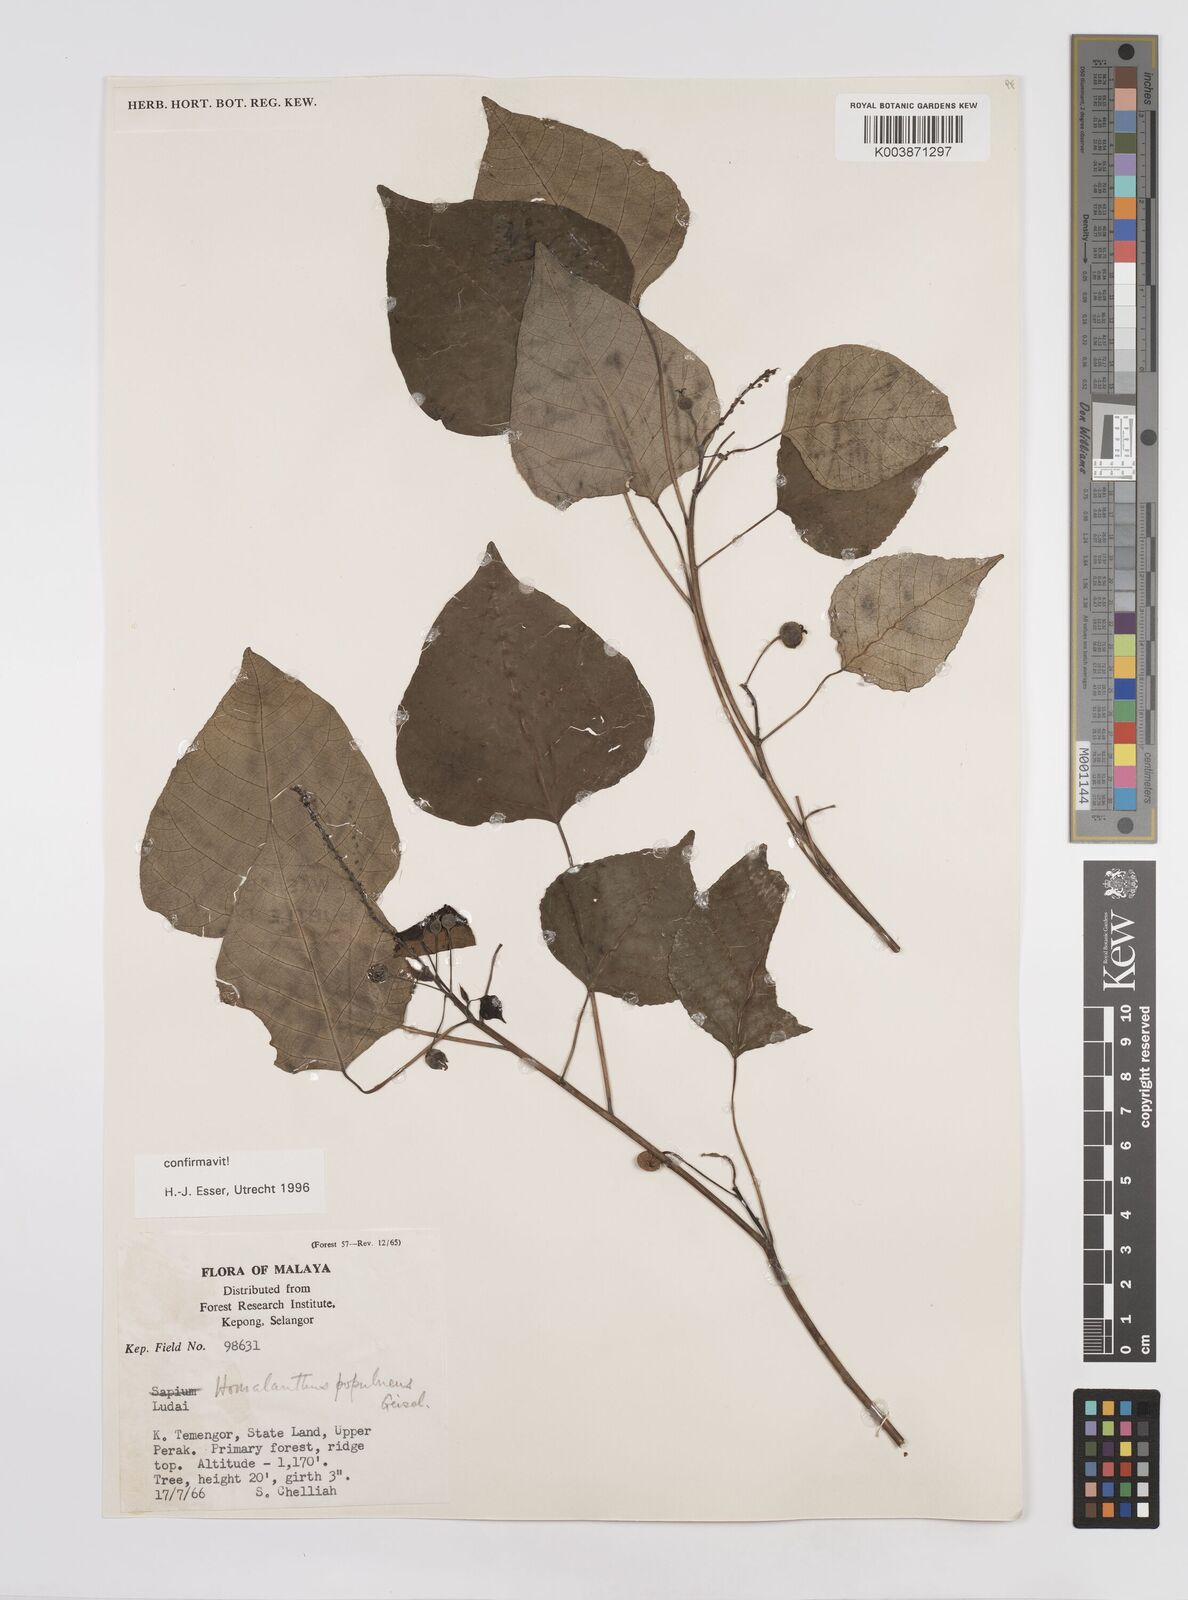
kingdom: Plantae
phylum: Tracheophyta
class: Magnoliopsida
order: Malpighiales
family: Euphorbiaceae
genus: Homalanthus
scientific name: Homalanthus populneus
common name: Spurge
